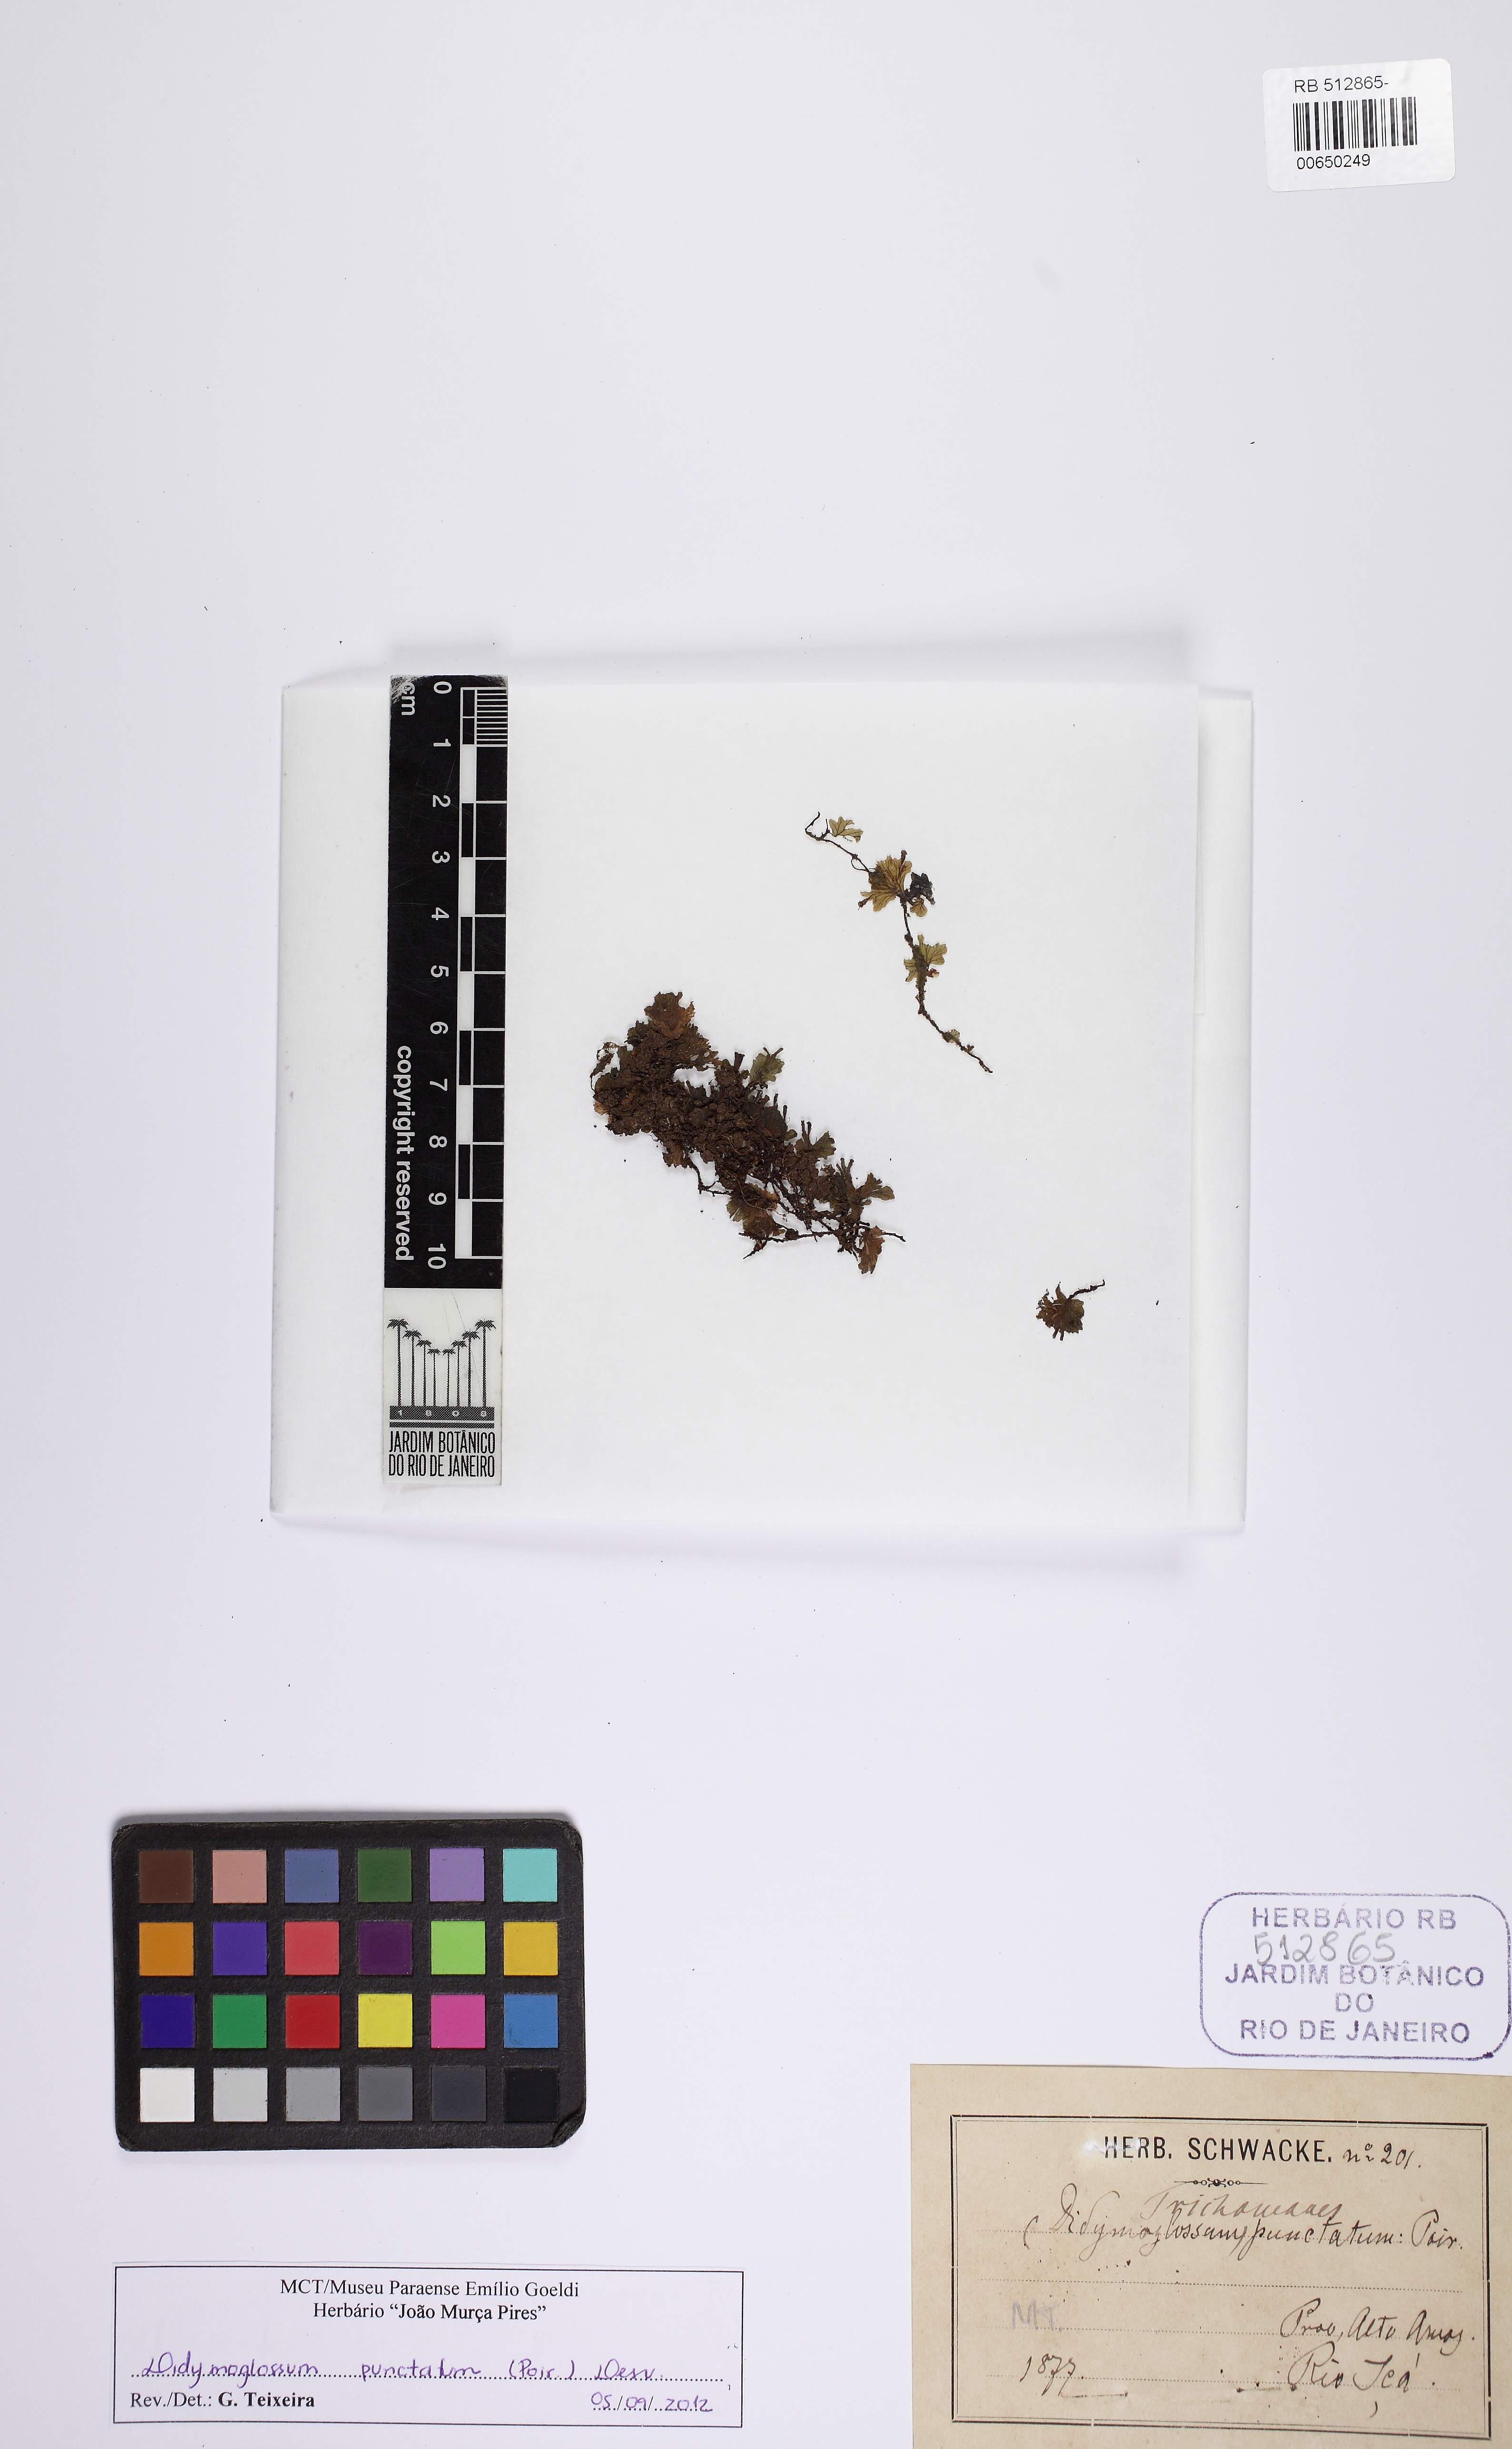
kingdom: Plantae
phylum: Tracheophyta
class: Polypodiopsida
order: Hymenophyllales
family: Hymenophyllaceae
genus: Didymoglossum
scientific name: Didymoglossum punctatum
